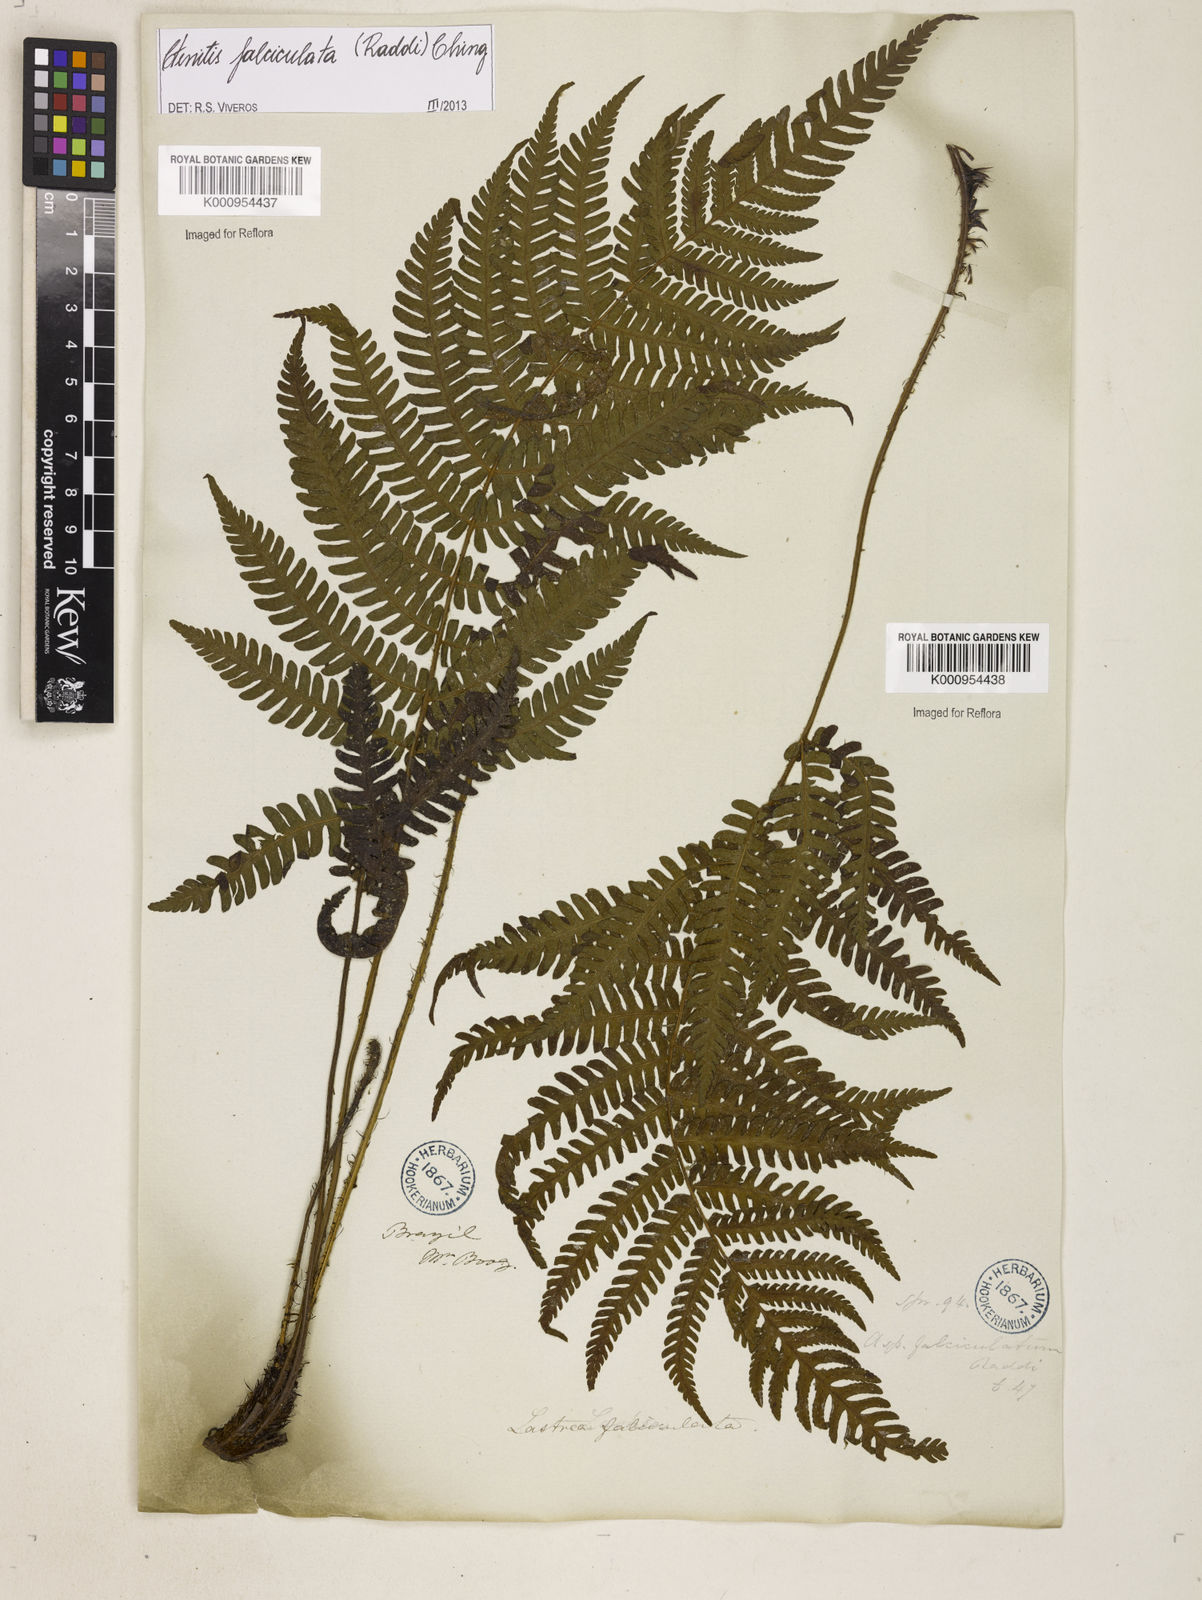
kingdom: Plantae
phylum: Tracheophyta
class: Polypodiopsida
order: Polypodiales
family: Dryopteridaceae
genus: Ctenitis
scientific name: Ctenitis falciculata
